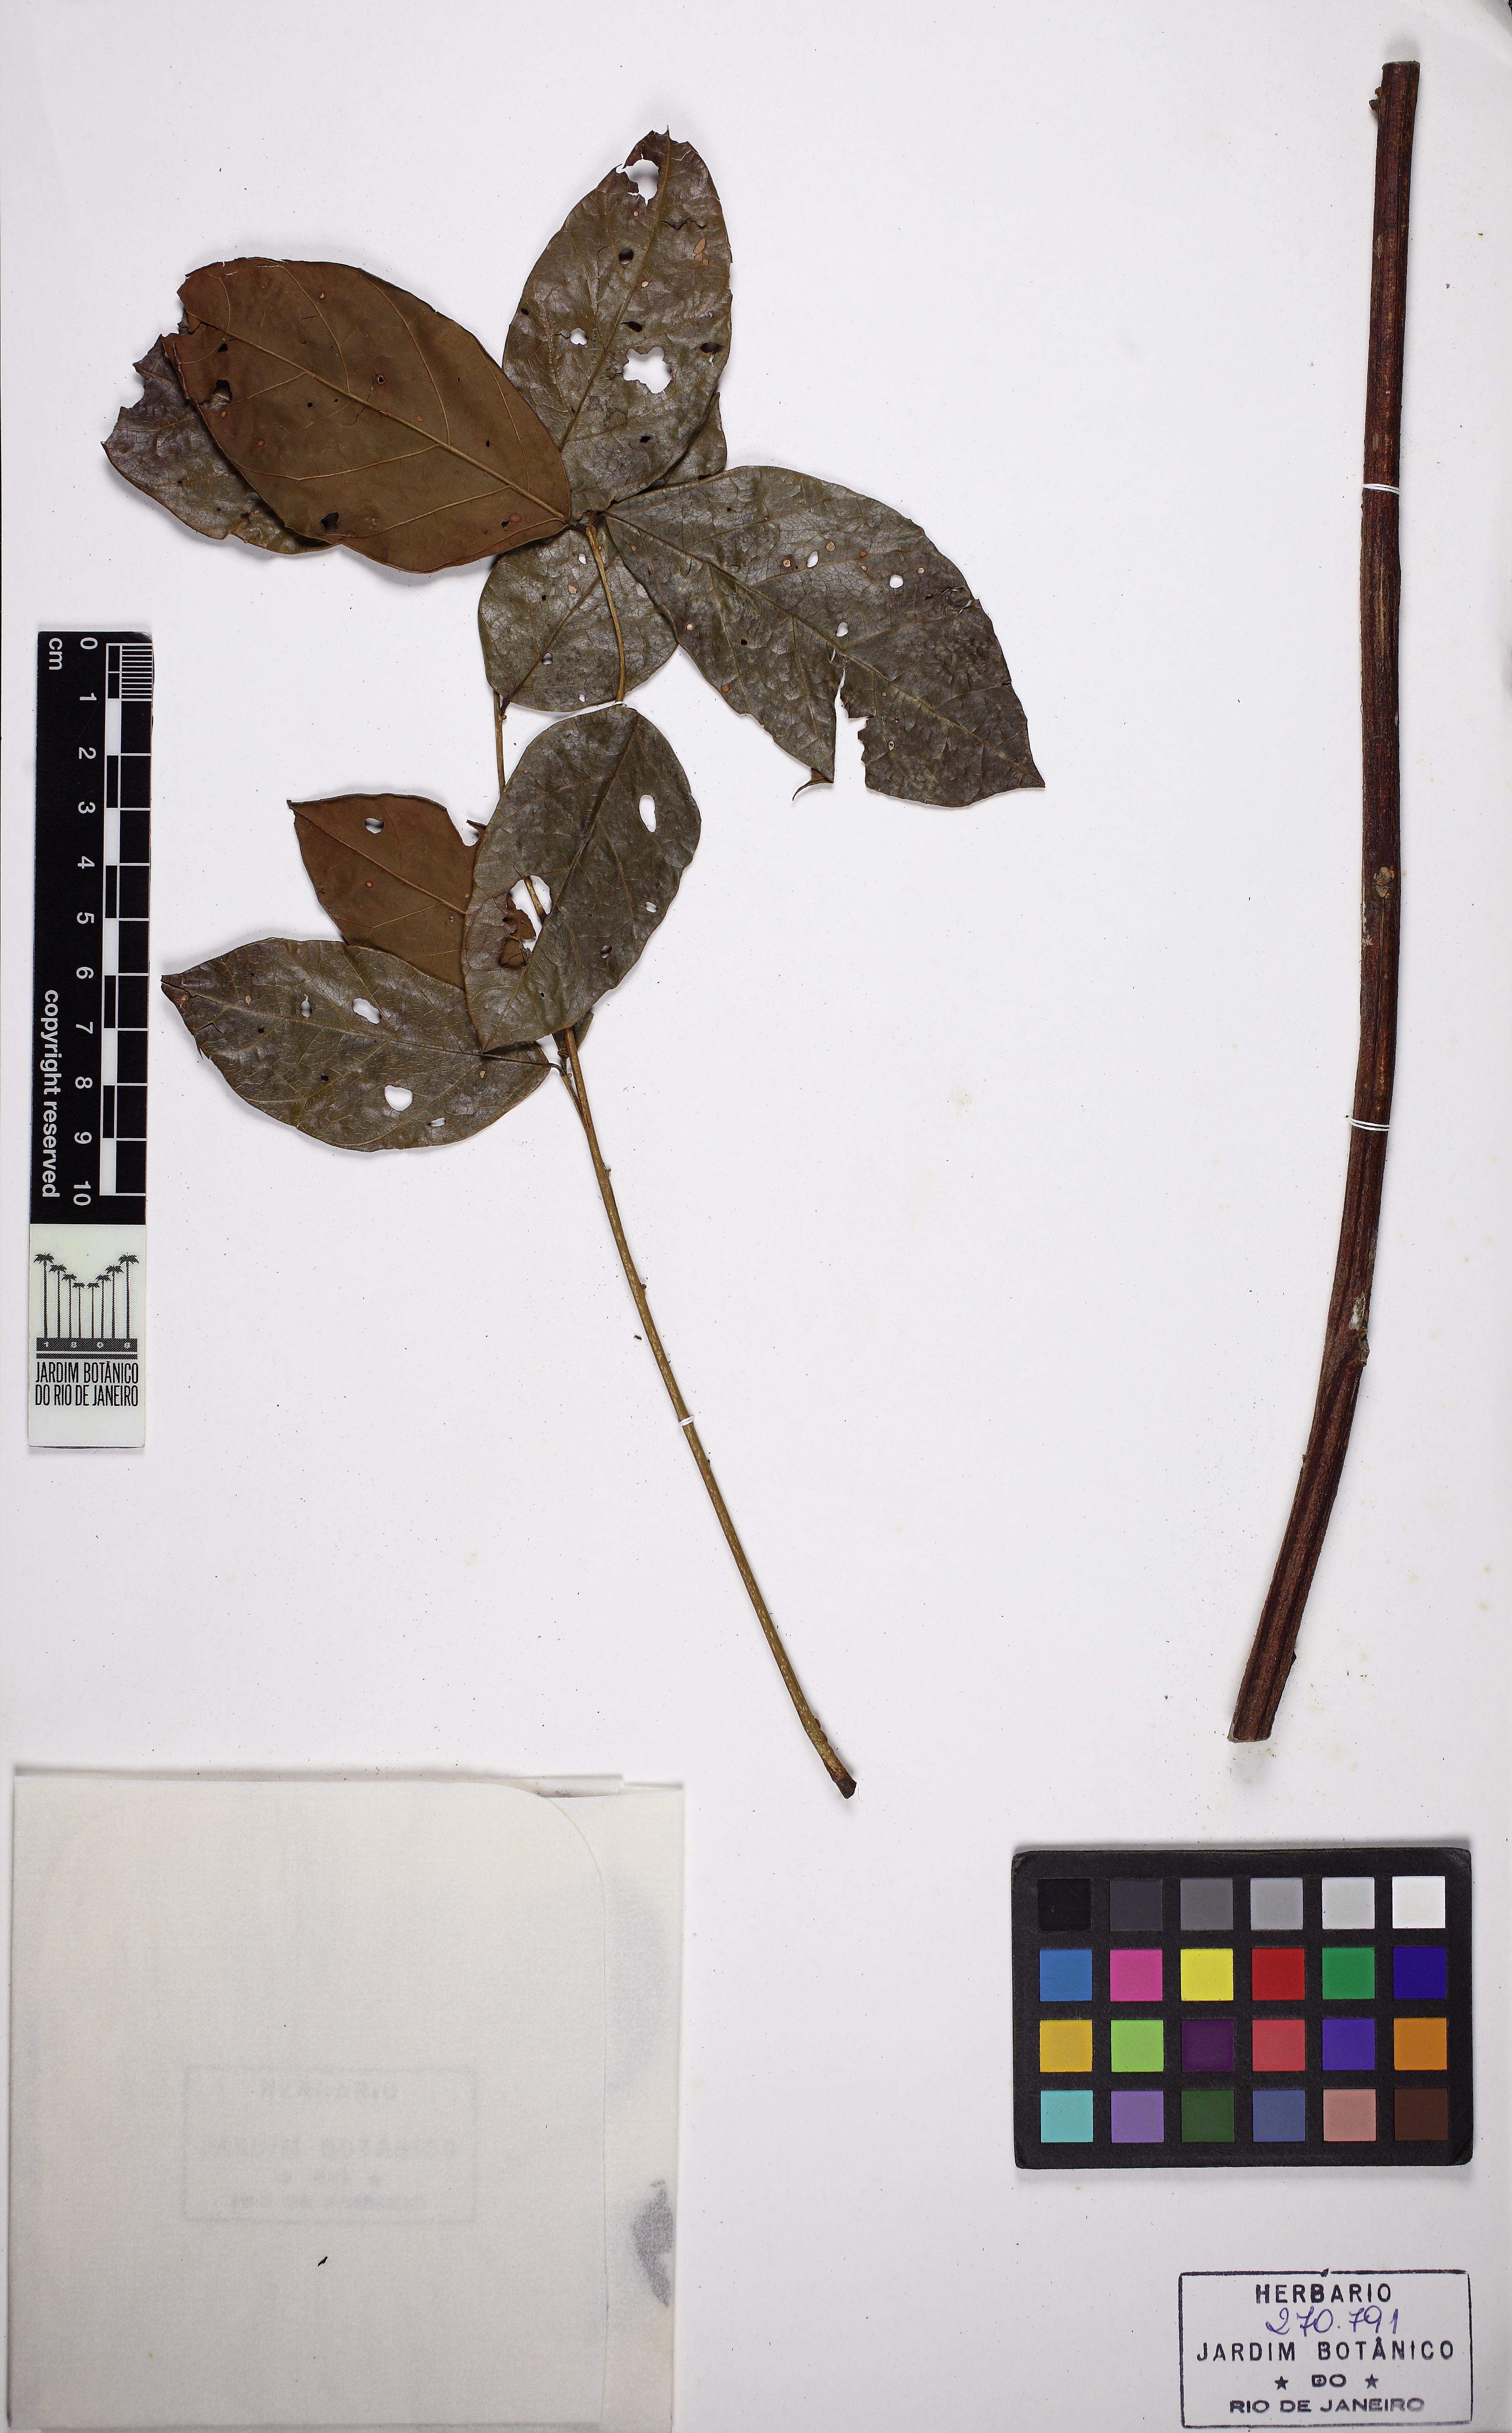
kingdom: Plantae
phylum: Tracheophyta
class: Magnoliopsida
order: Fabales
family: Fabaceae
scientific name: Fabaceae
